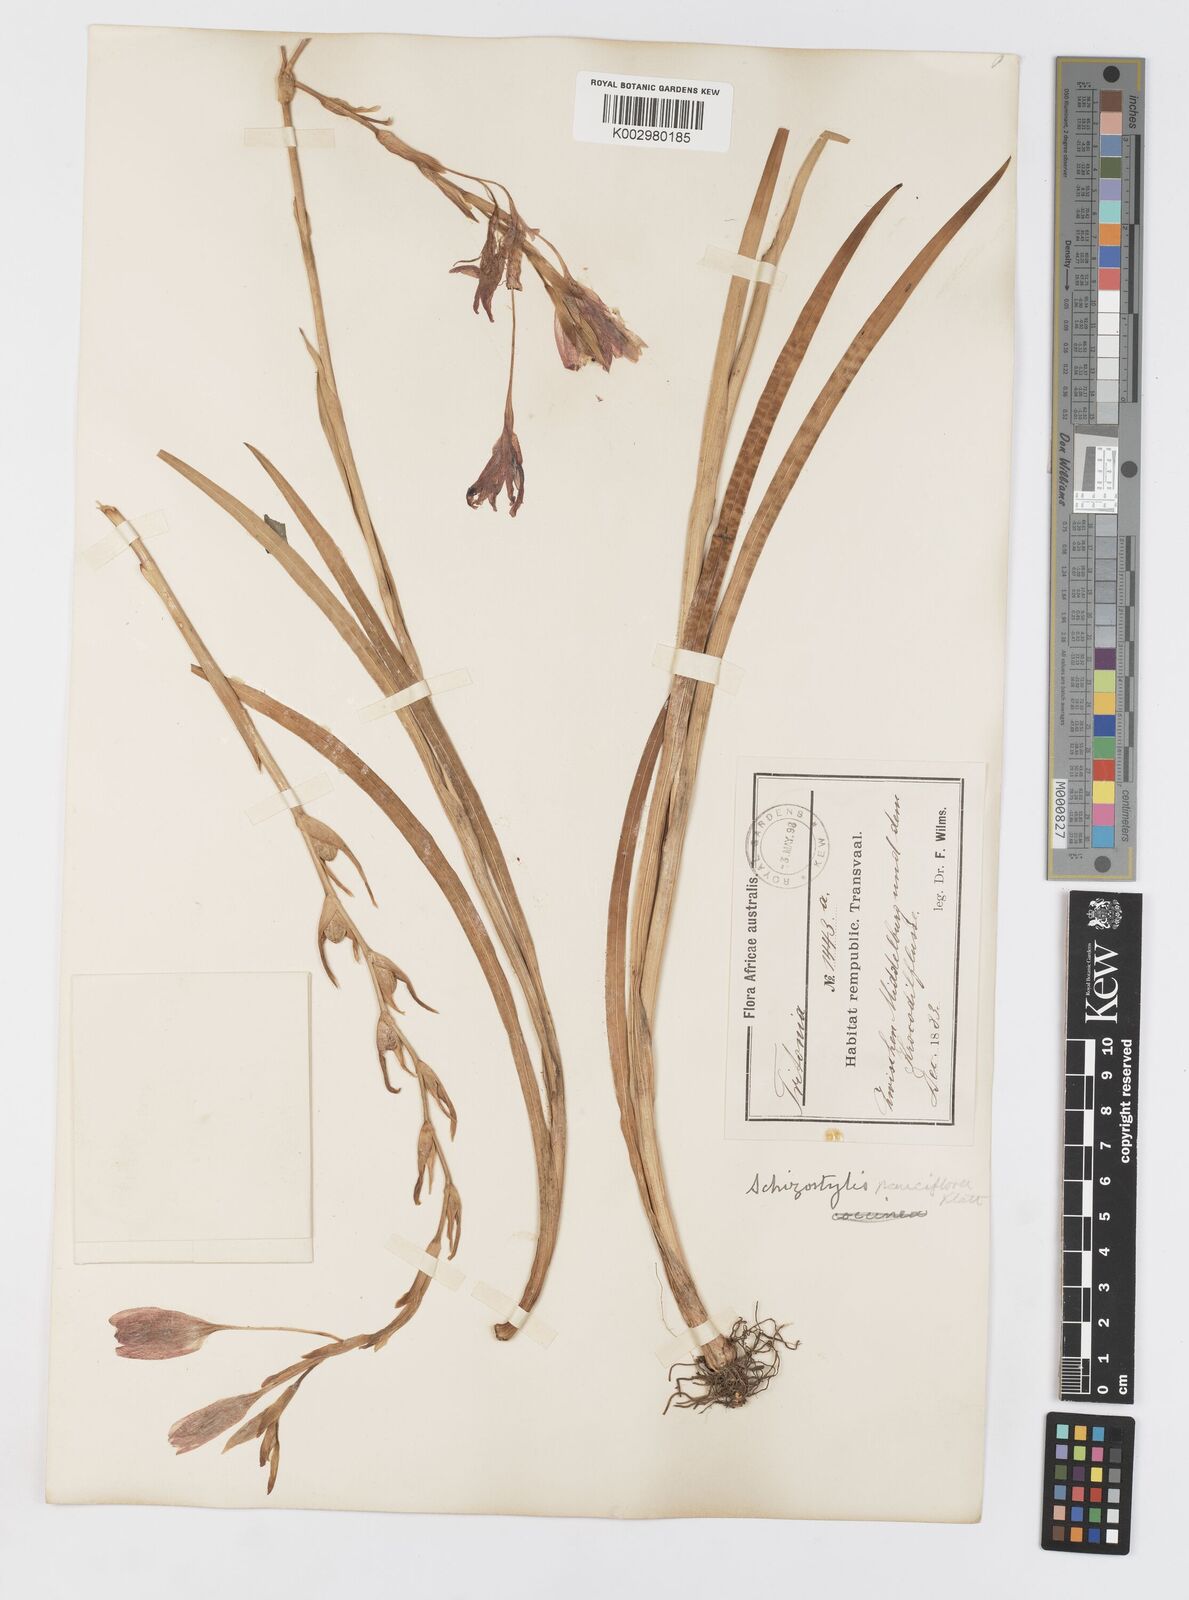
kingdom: Plantae
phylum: Tracheophyta
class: Liliopsida
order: Asparagales
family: Iridaceae
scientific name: Iridaceae
